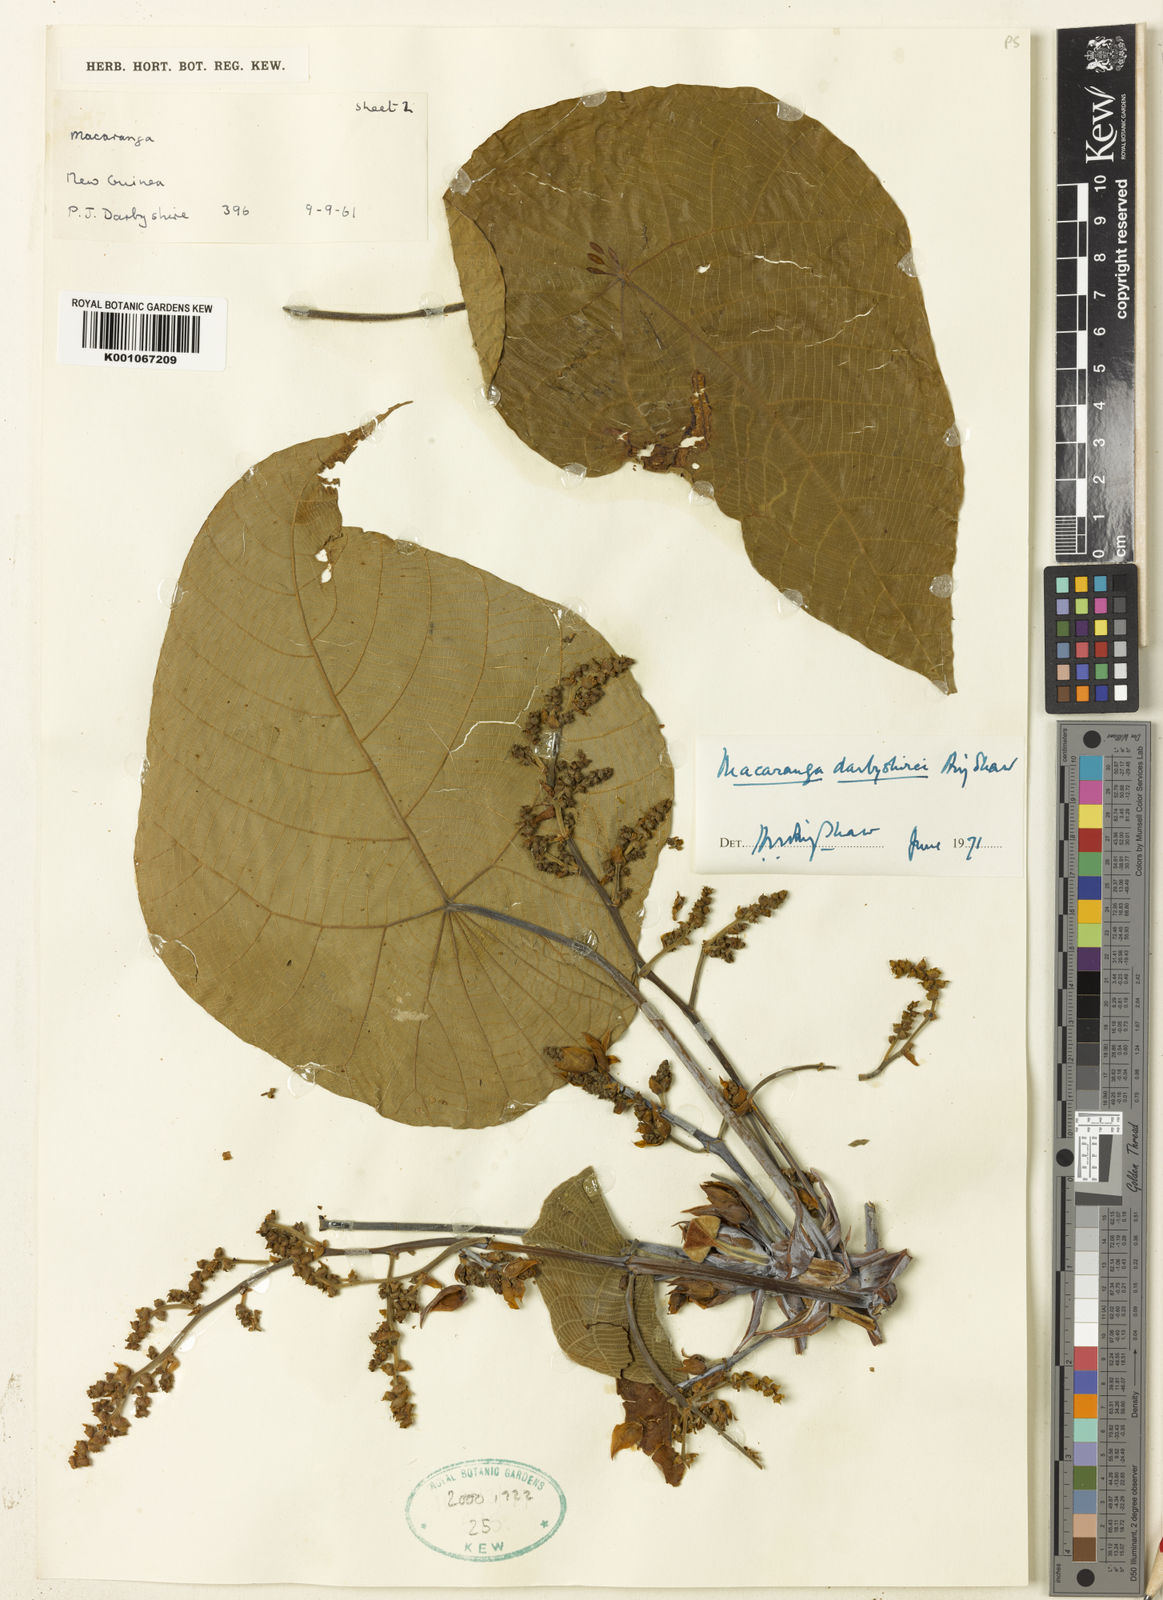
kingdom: Plantae
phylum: Tracheophyta
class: Magnoliopsida
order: Malpighiales
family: Euphorbiaceae
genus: Macaranga
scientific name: Macaranga darbyshirei
